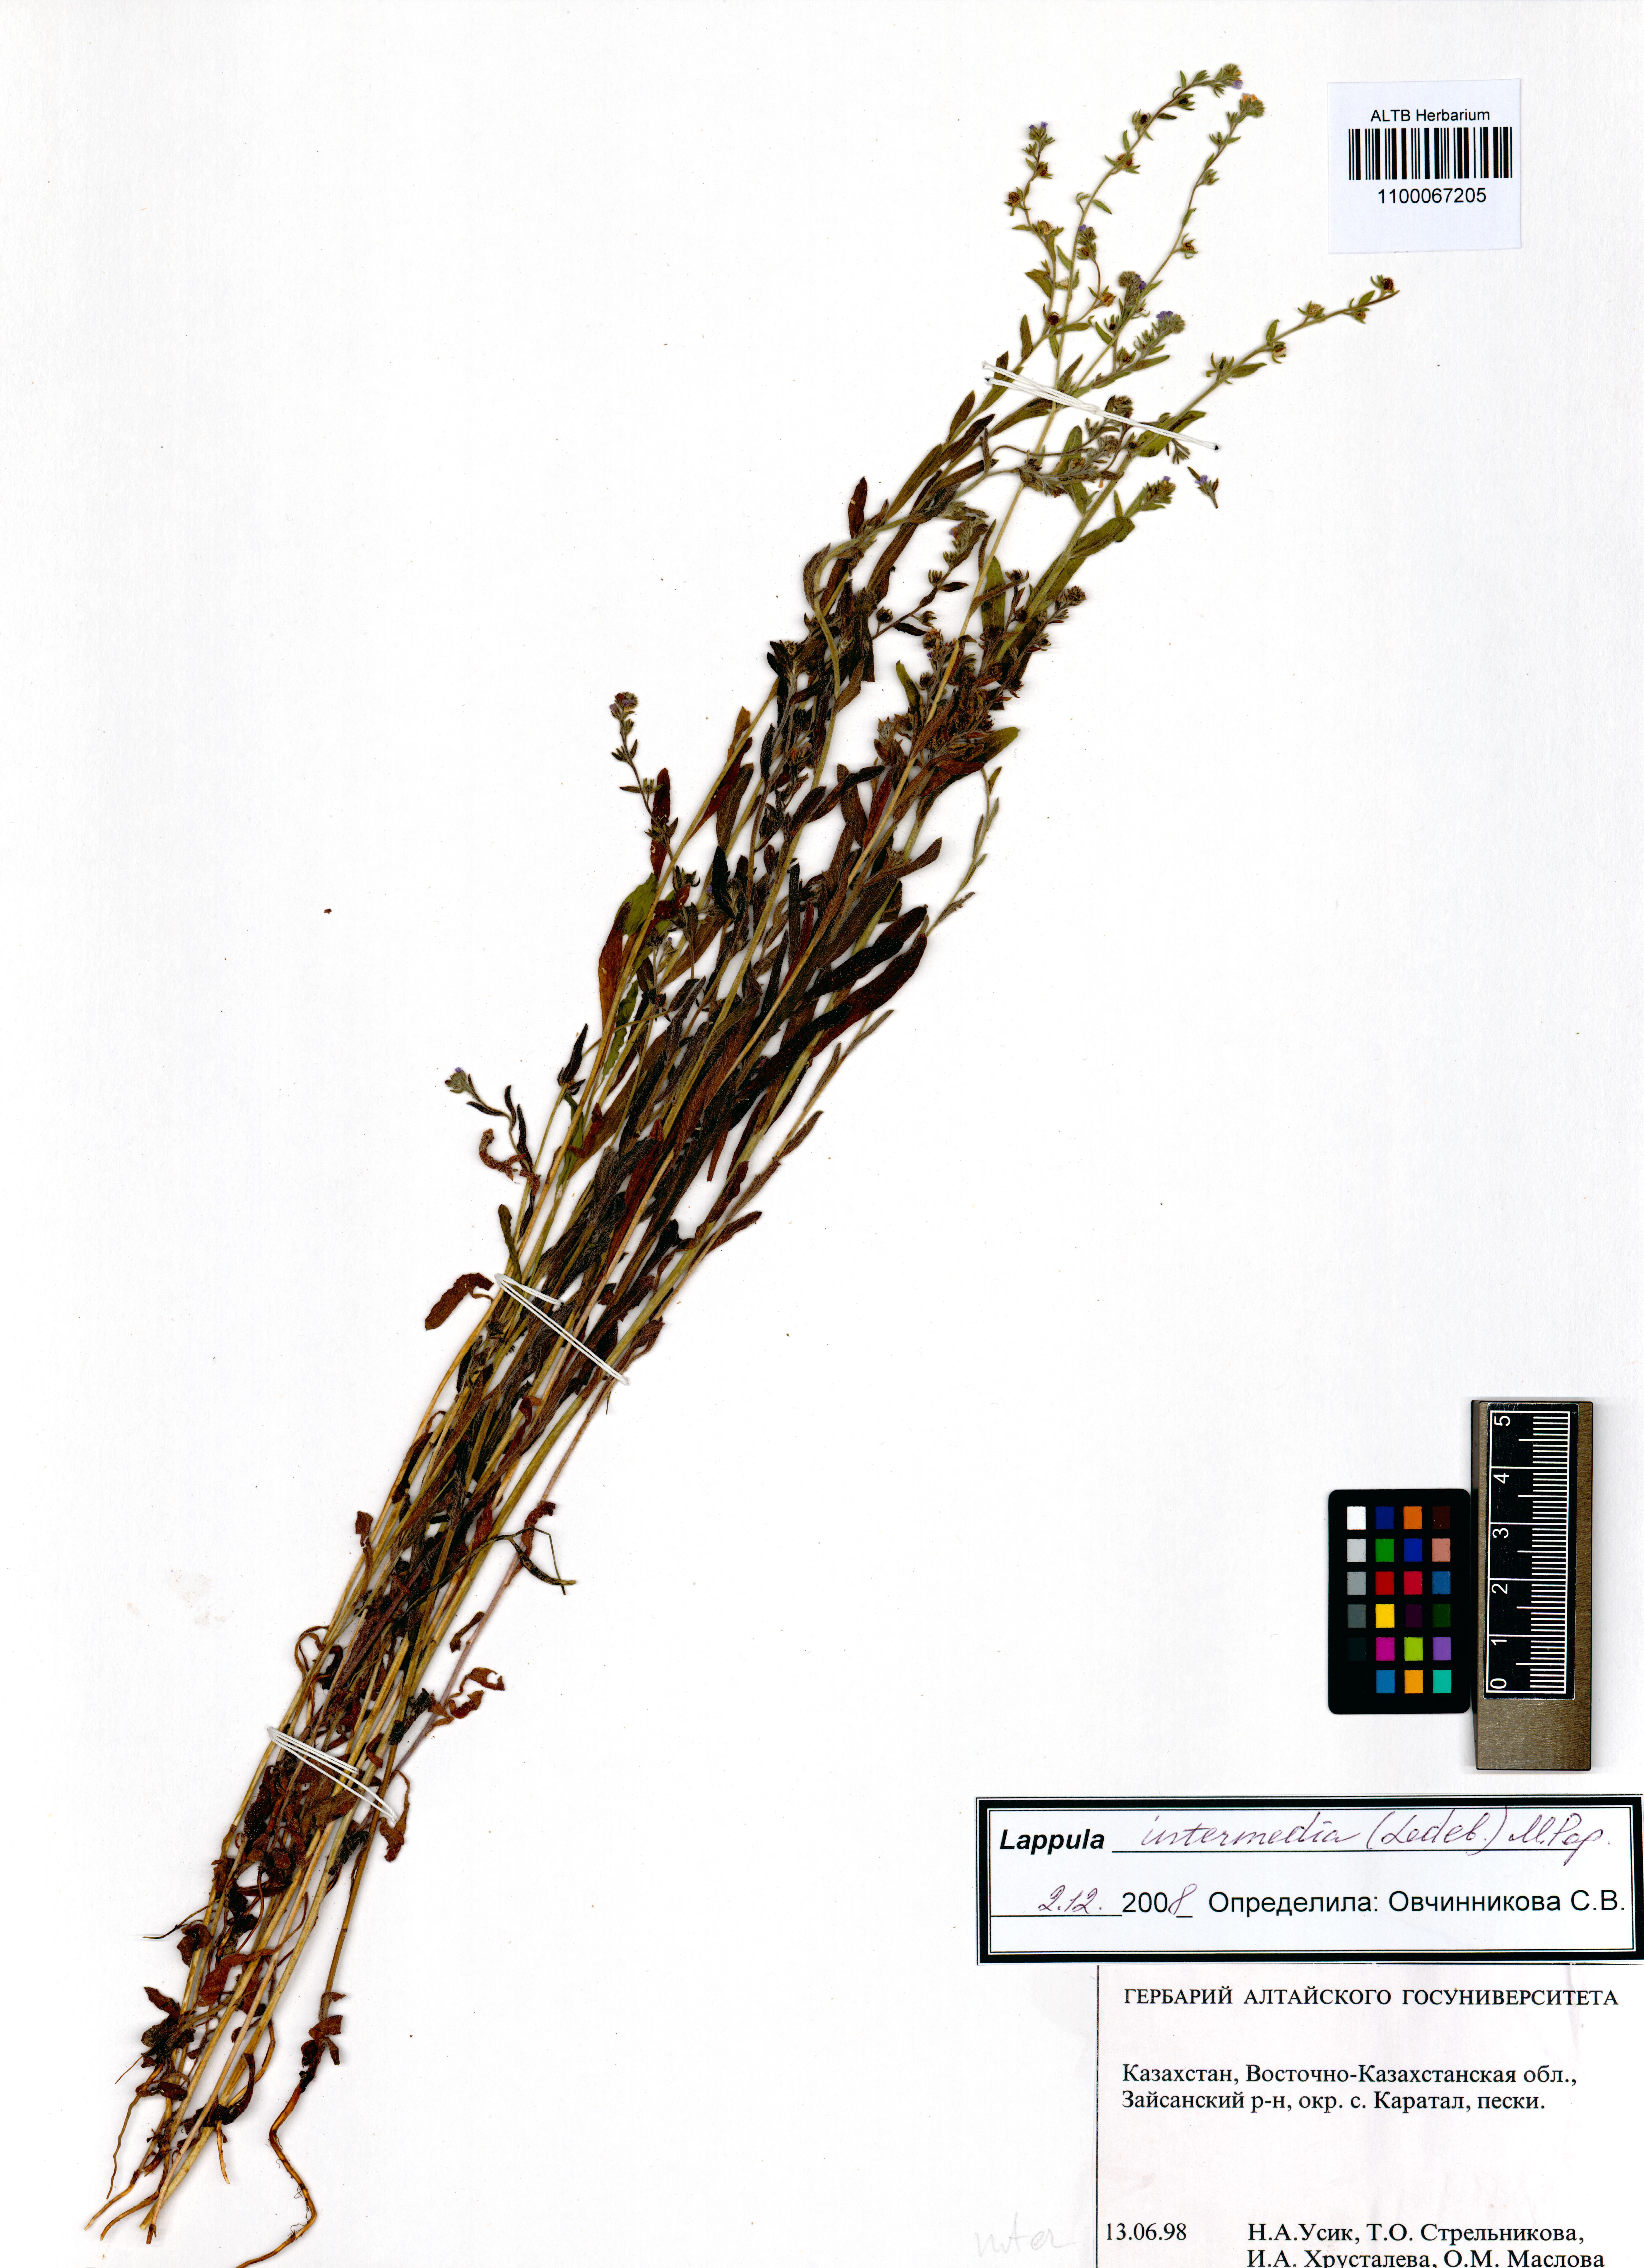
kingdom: Plantae
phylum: Tracheophyta
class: Magnoliopsida
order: Boraginales
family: Boraginaceae
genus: Lappula
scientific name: Lappula intermedia
